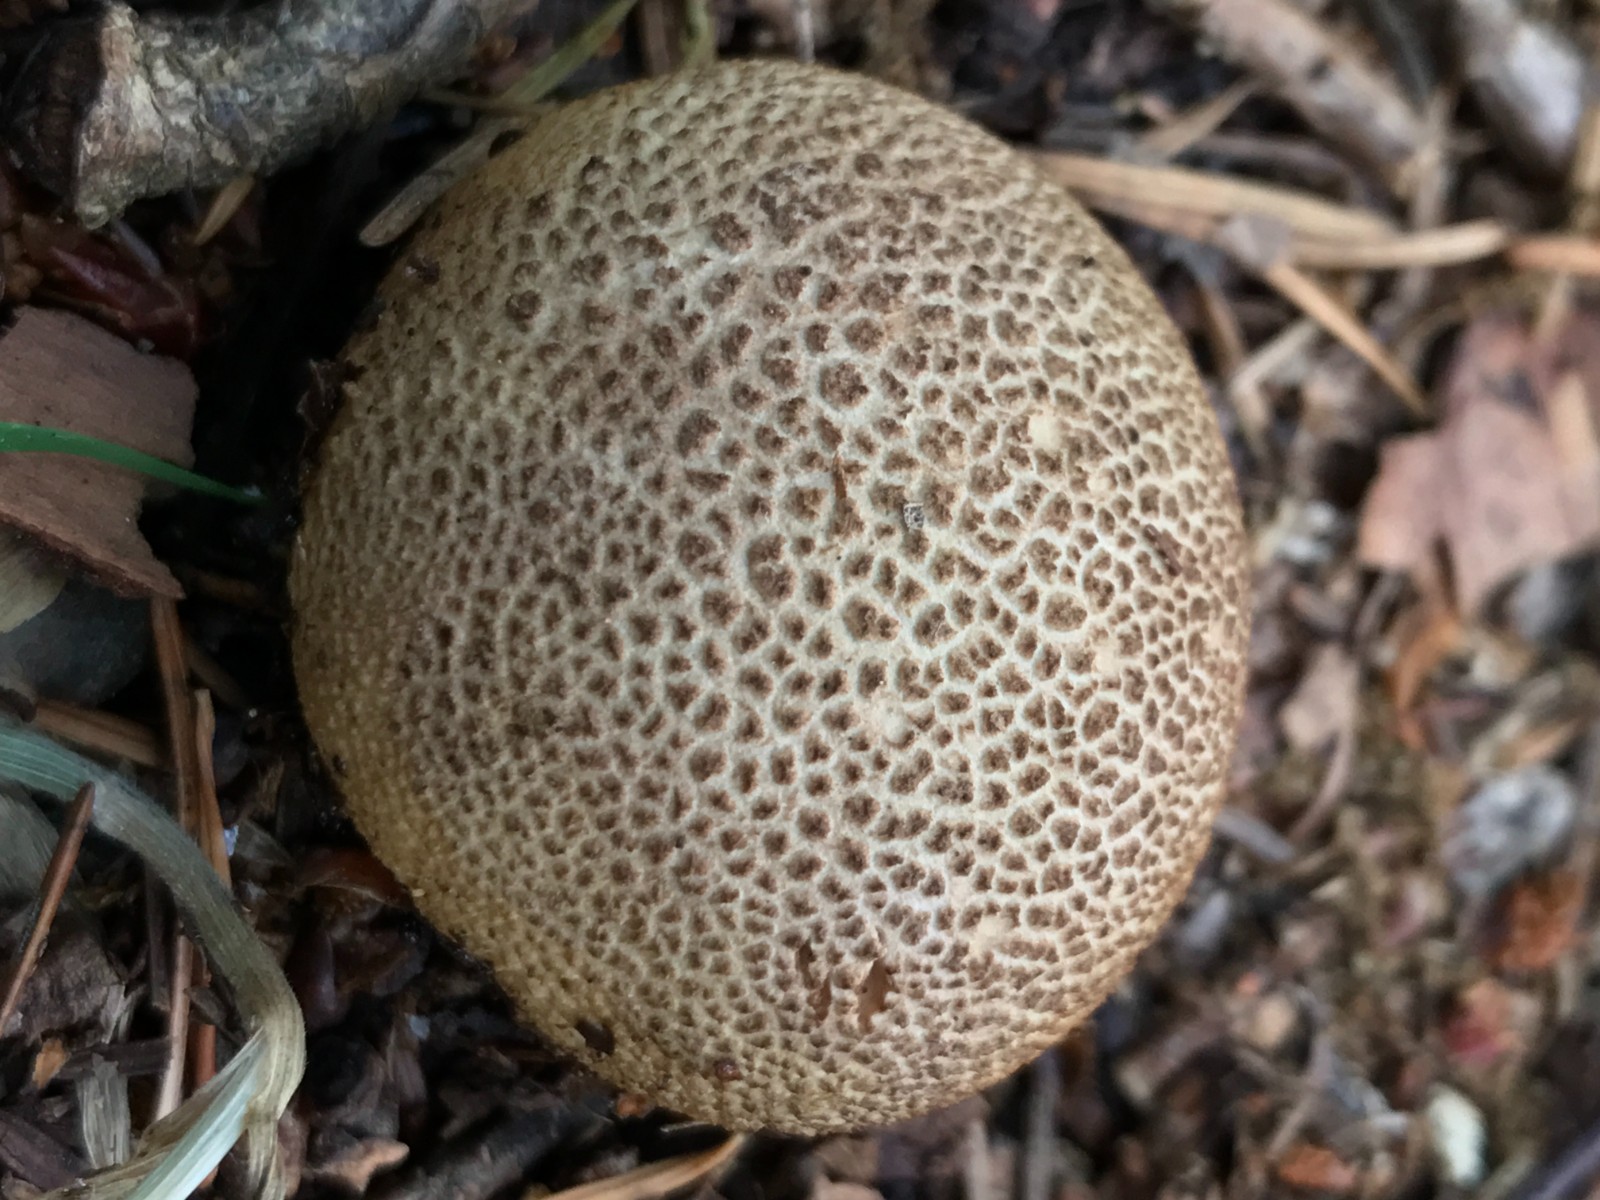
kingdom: Fungi
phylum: Basidiomycota
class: Agaricomycetes
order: Boletales
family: Sclerodermataceae
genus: Scleroderma
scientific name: Scleroderma citrinum
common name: almindelig bruskbold
